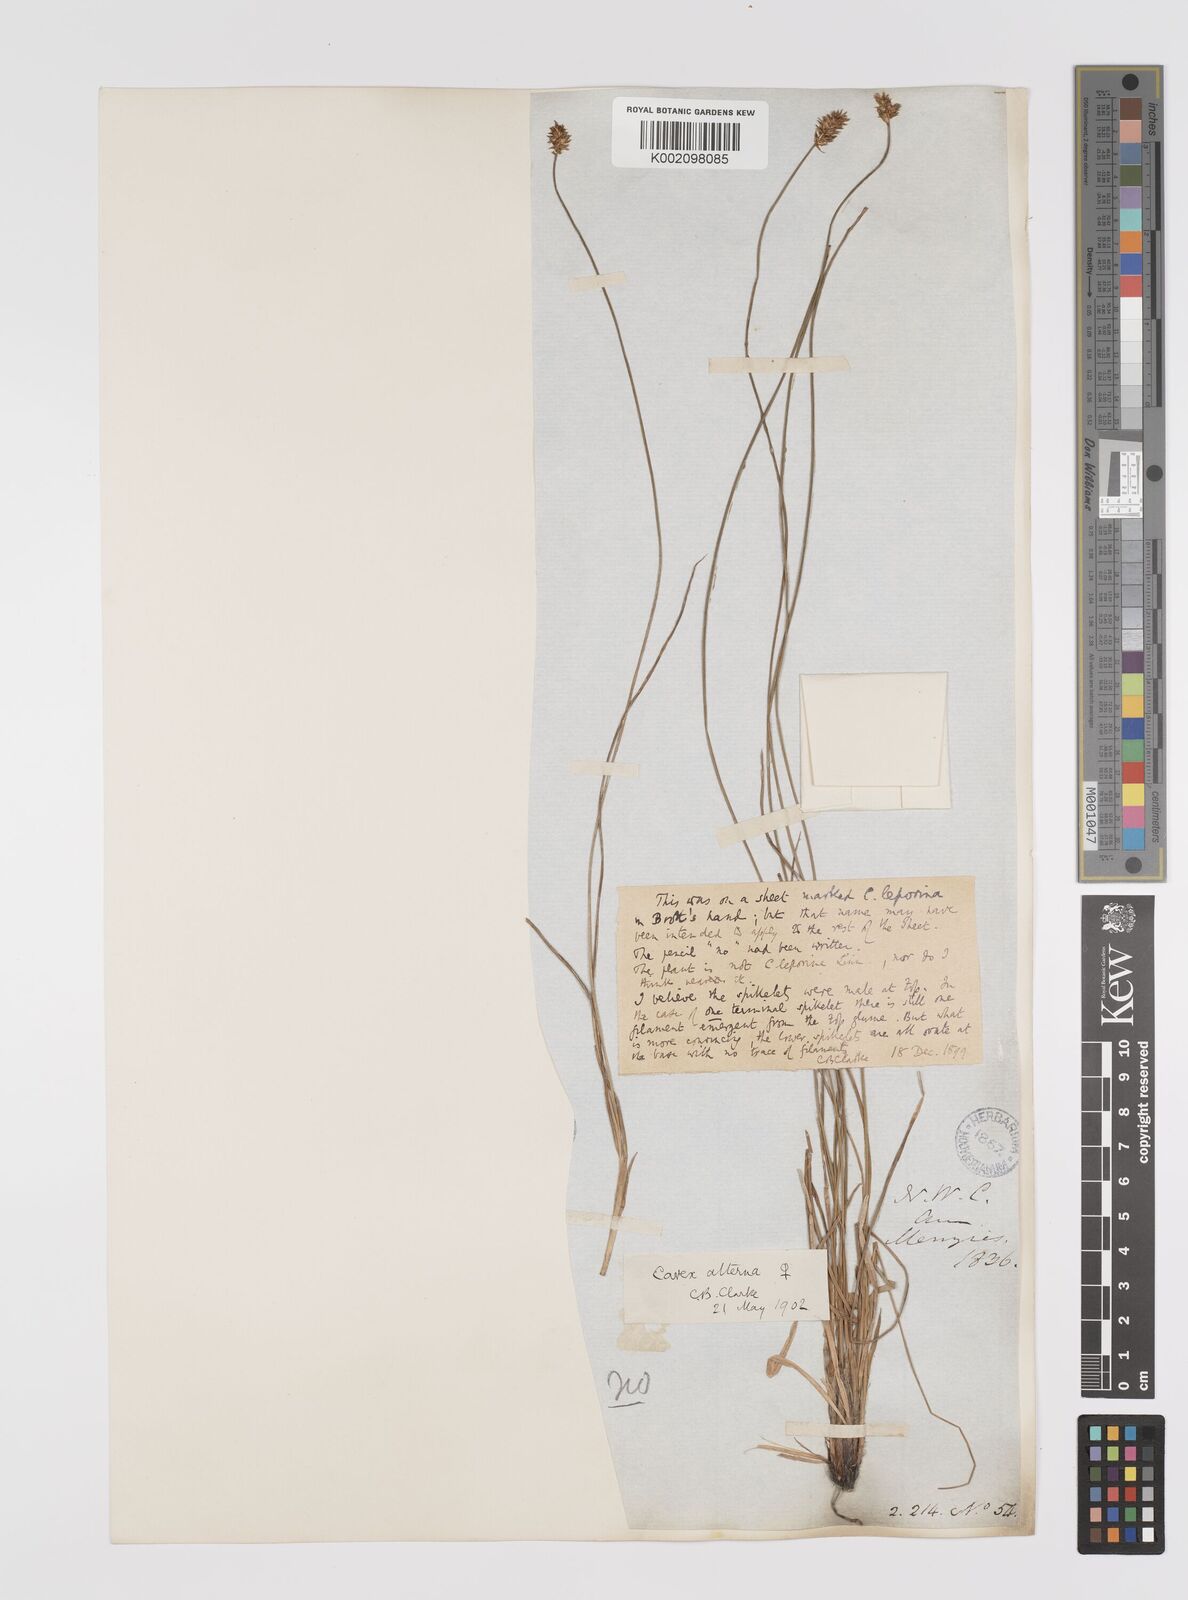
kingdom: Plantae
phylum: Tracheophyta
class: Liliopsida
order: Poales
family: Cyperaceae
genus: Carex
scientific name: Carex praegracilis
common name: Black creeper sedge
